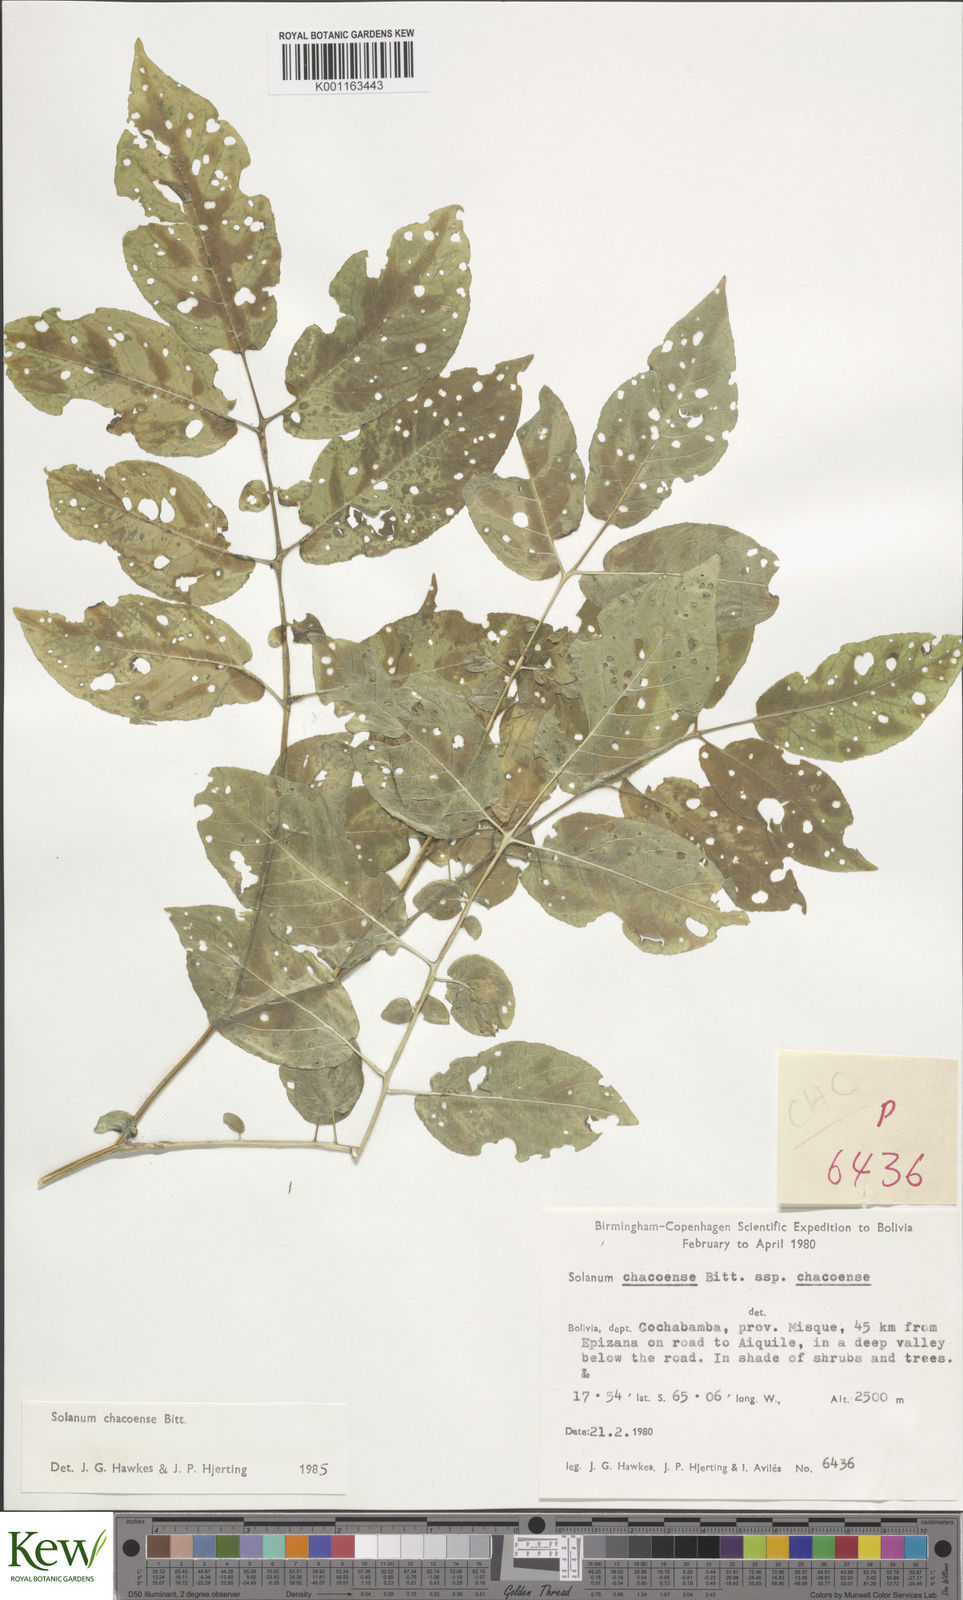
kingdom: Plantae
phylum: Tracheophyta
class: Magnoliopsida
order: Solanales
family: Solanaceae
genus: Solanum
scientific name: Solanum chacoense
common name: Chaco potato
